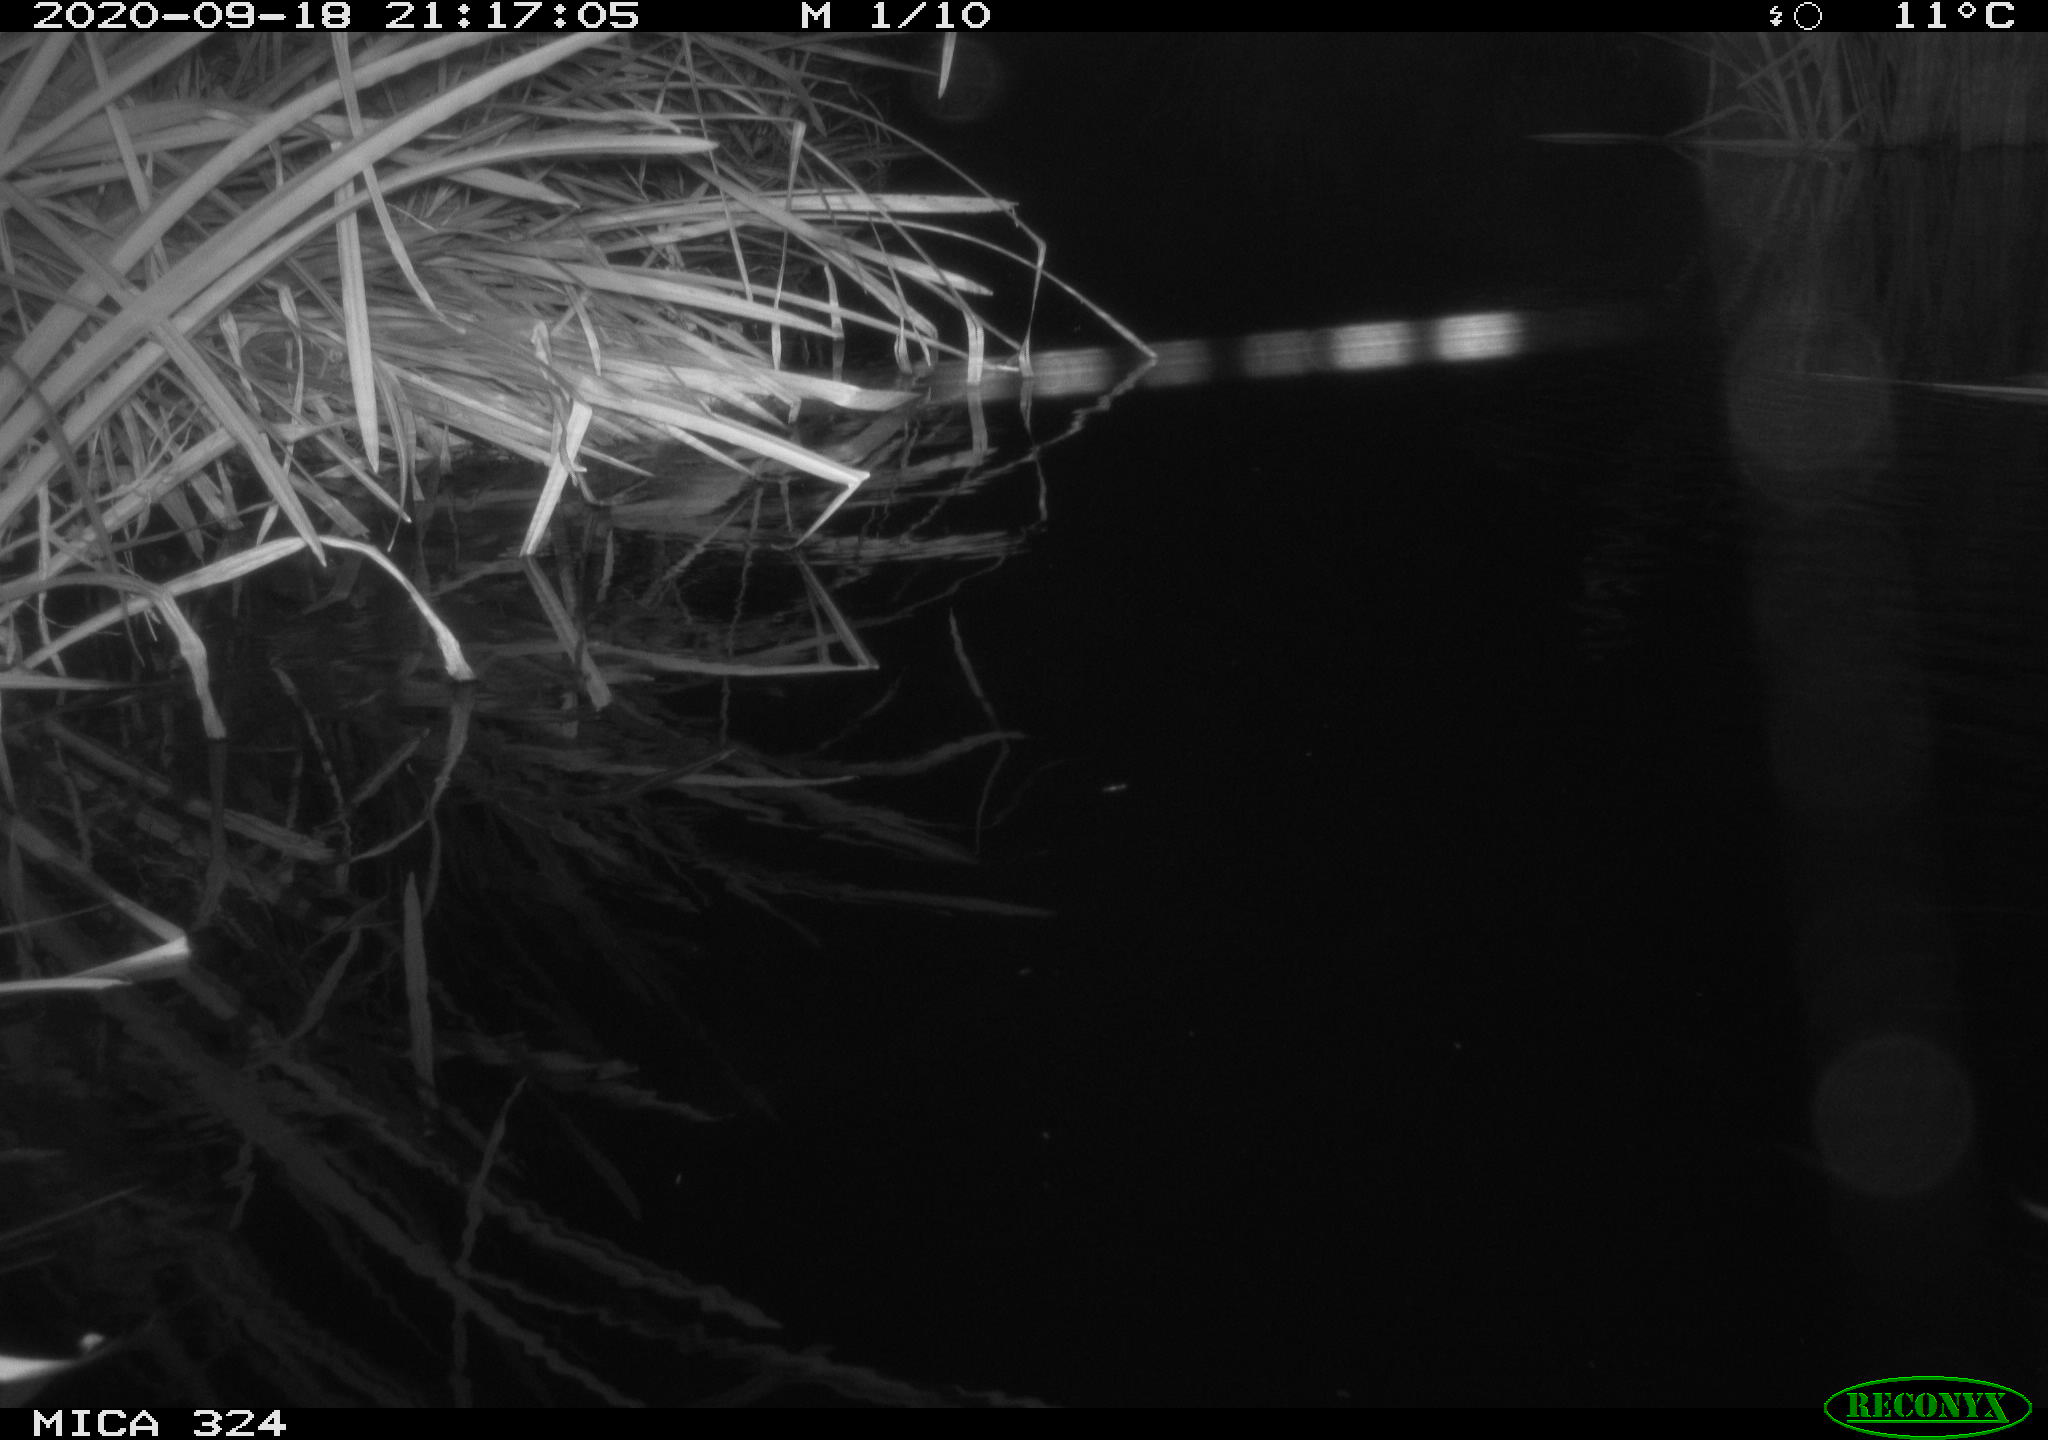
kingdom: Animalia
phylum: Chordata
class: Mammalia
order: Rodentia
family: Cricetidae
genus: Ondatra
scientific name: Ondatra zibethicus
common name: Muskrat
